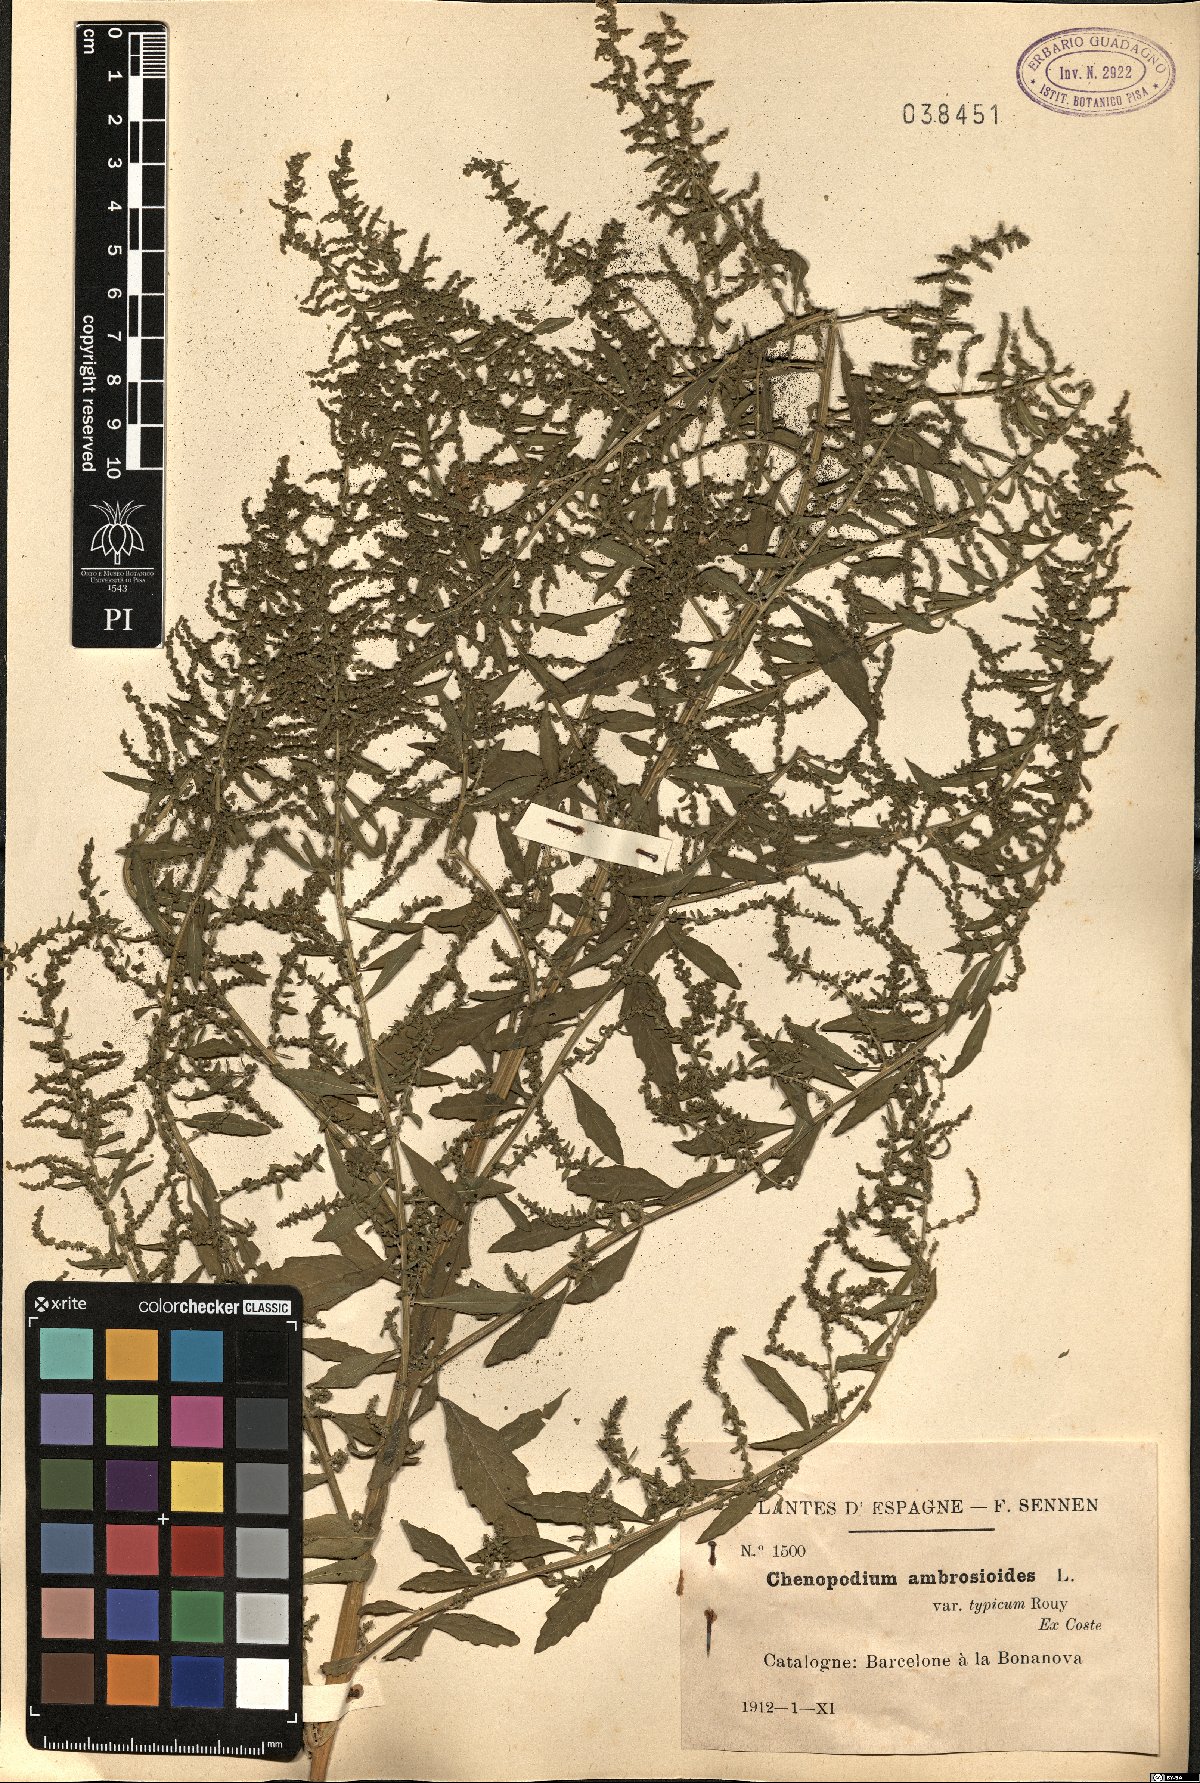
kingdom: Plantae
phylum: Tracheophyta
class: Magnoliopsida
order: Caryophyllales
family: Amaranthaceae
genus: Dysphania
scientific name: Dysphania ambrosioides
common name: Wormseed
